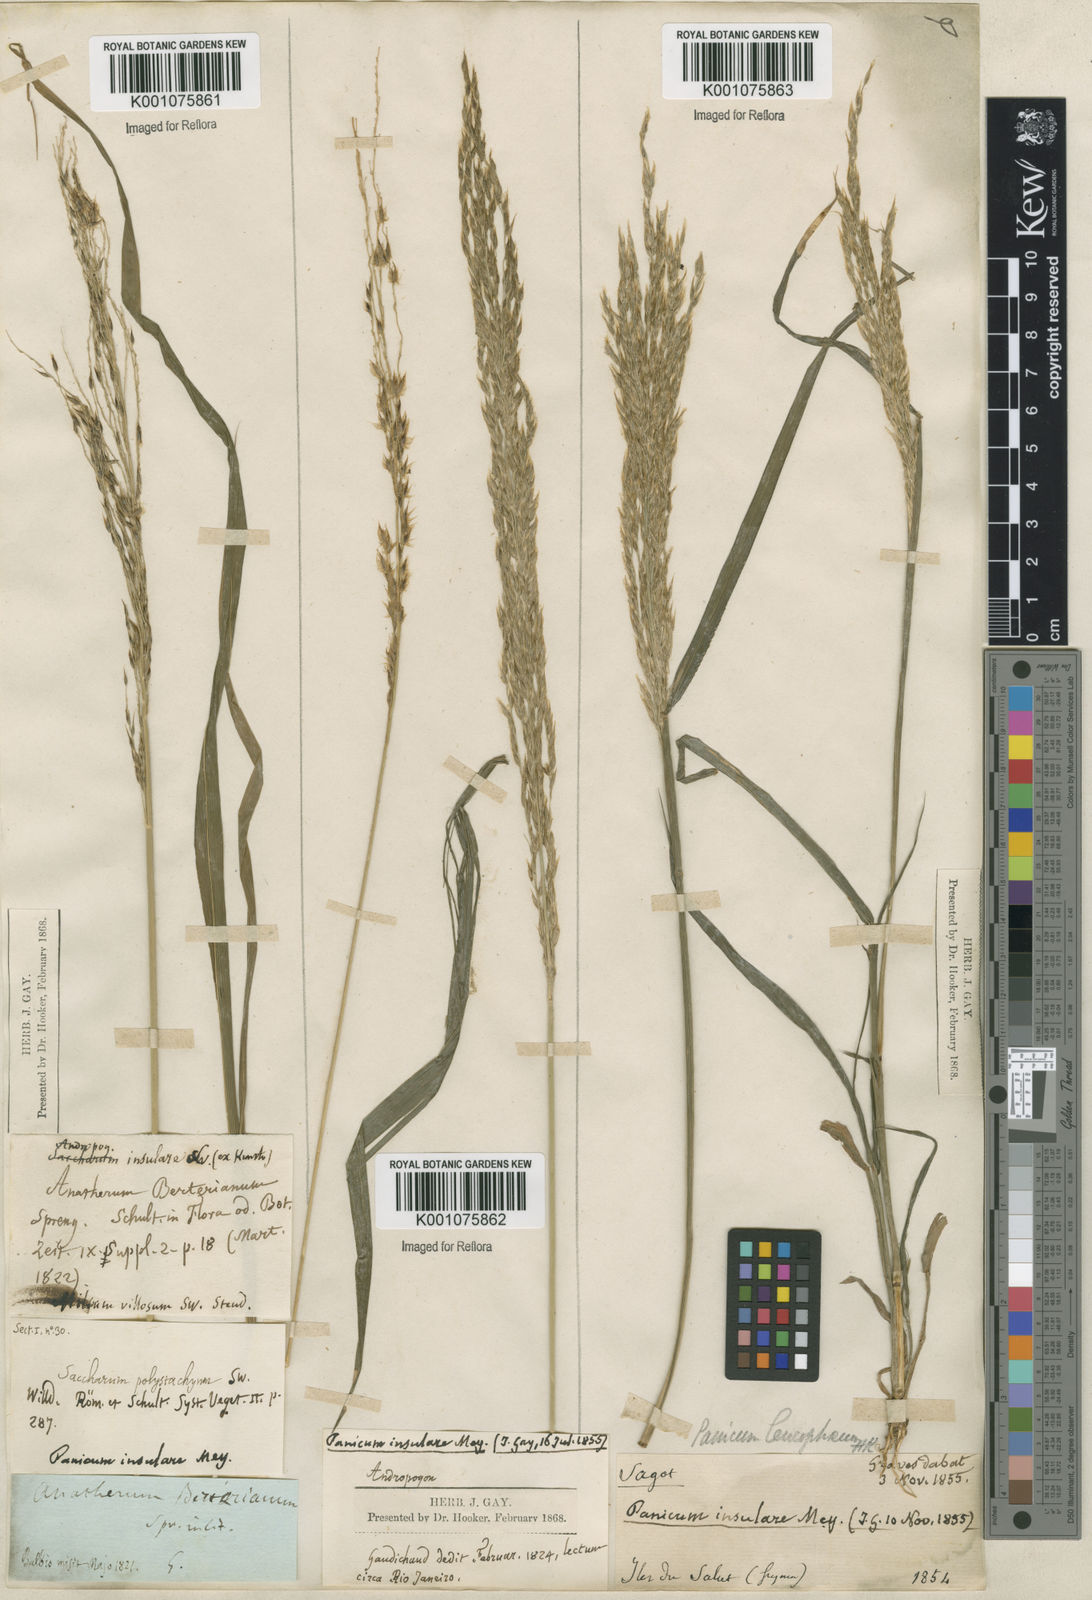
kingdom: Plantae
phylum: Tracheophyta
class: Liliopsida
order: Poales
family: Poaceae
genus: Digitaria
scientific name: Digitaria
